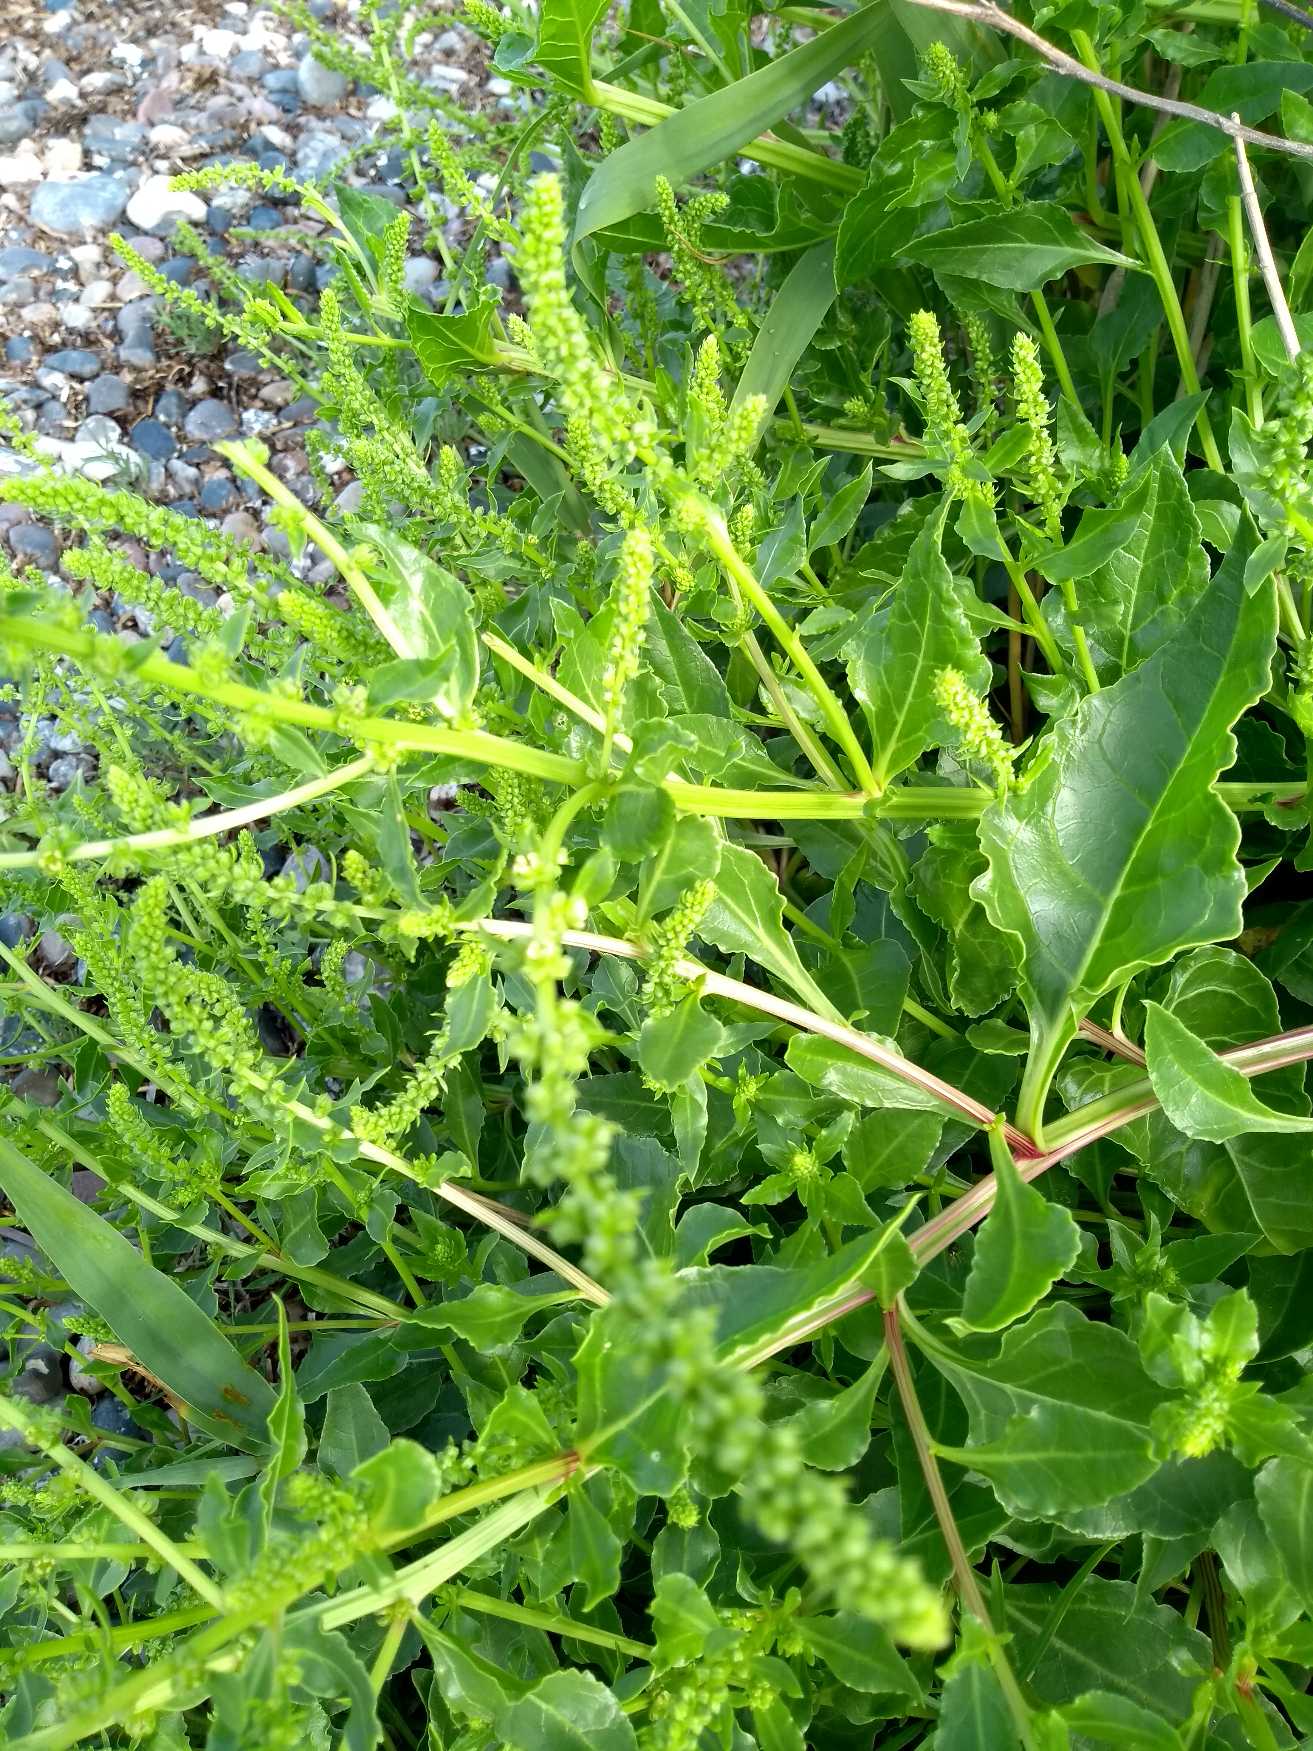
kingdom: Plantae
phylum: Tracheophyta
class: Magnoliopsida
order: Caryophyllales
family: Amaranthaceae
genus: Beta
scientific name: Beta maritima
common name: Strand-bede
